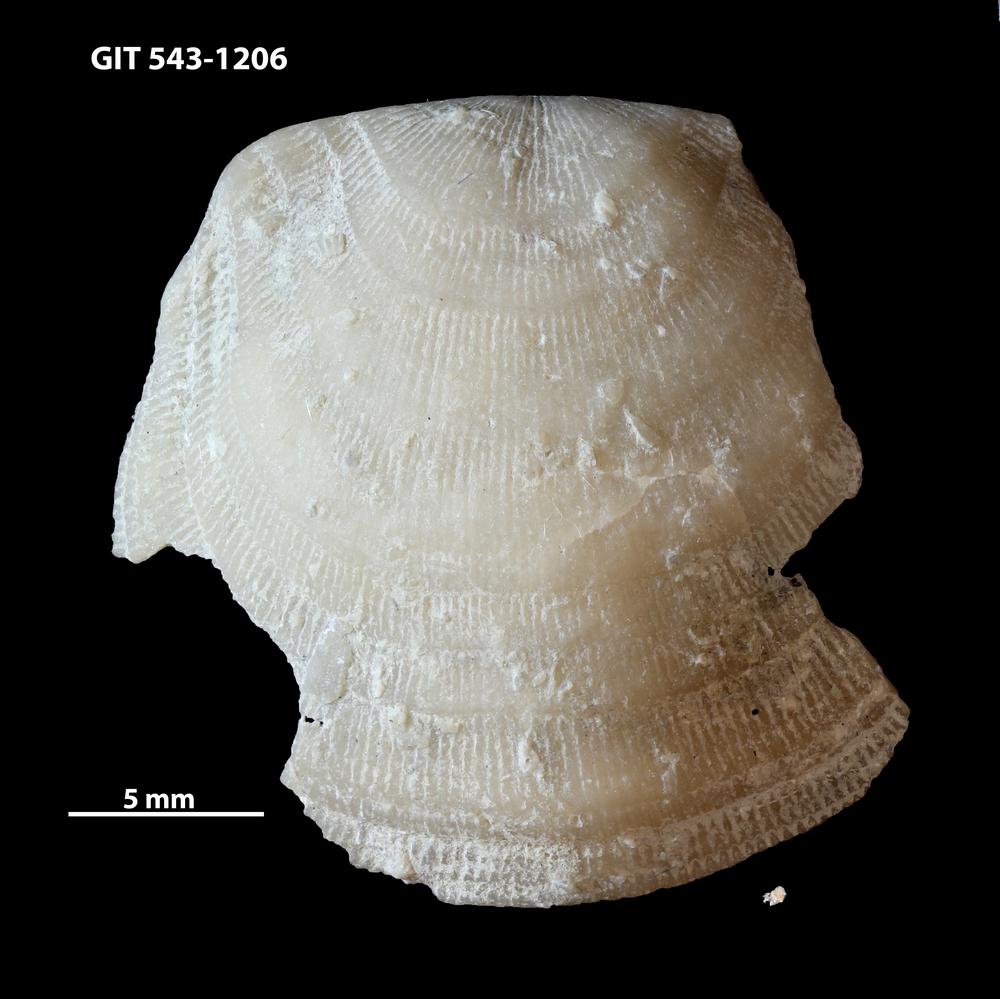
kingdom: Animalia
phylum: Brachiopoda
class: Rhynchonellata
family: Clitambonitidae
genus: Ilmarinia
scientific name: Ilmarinia
